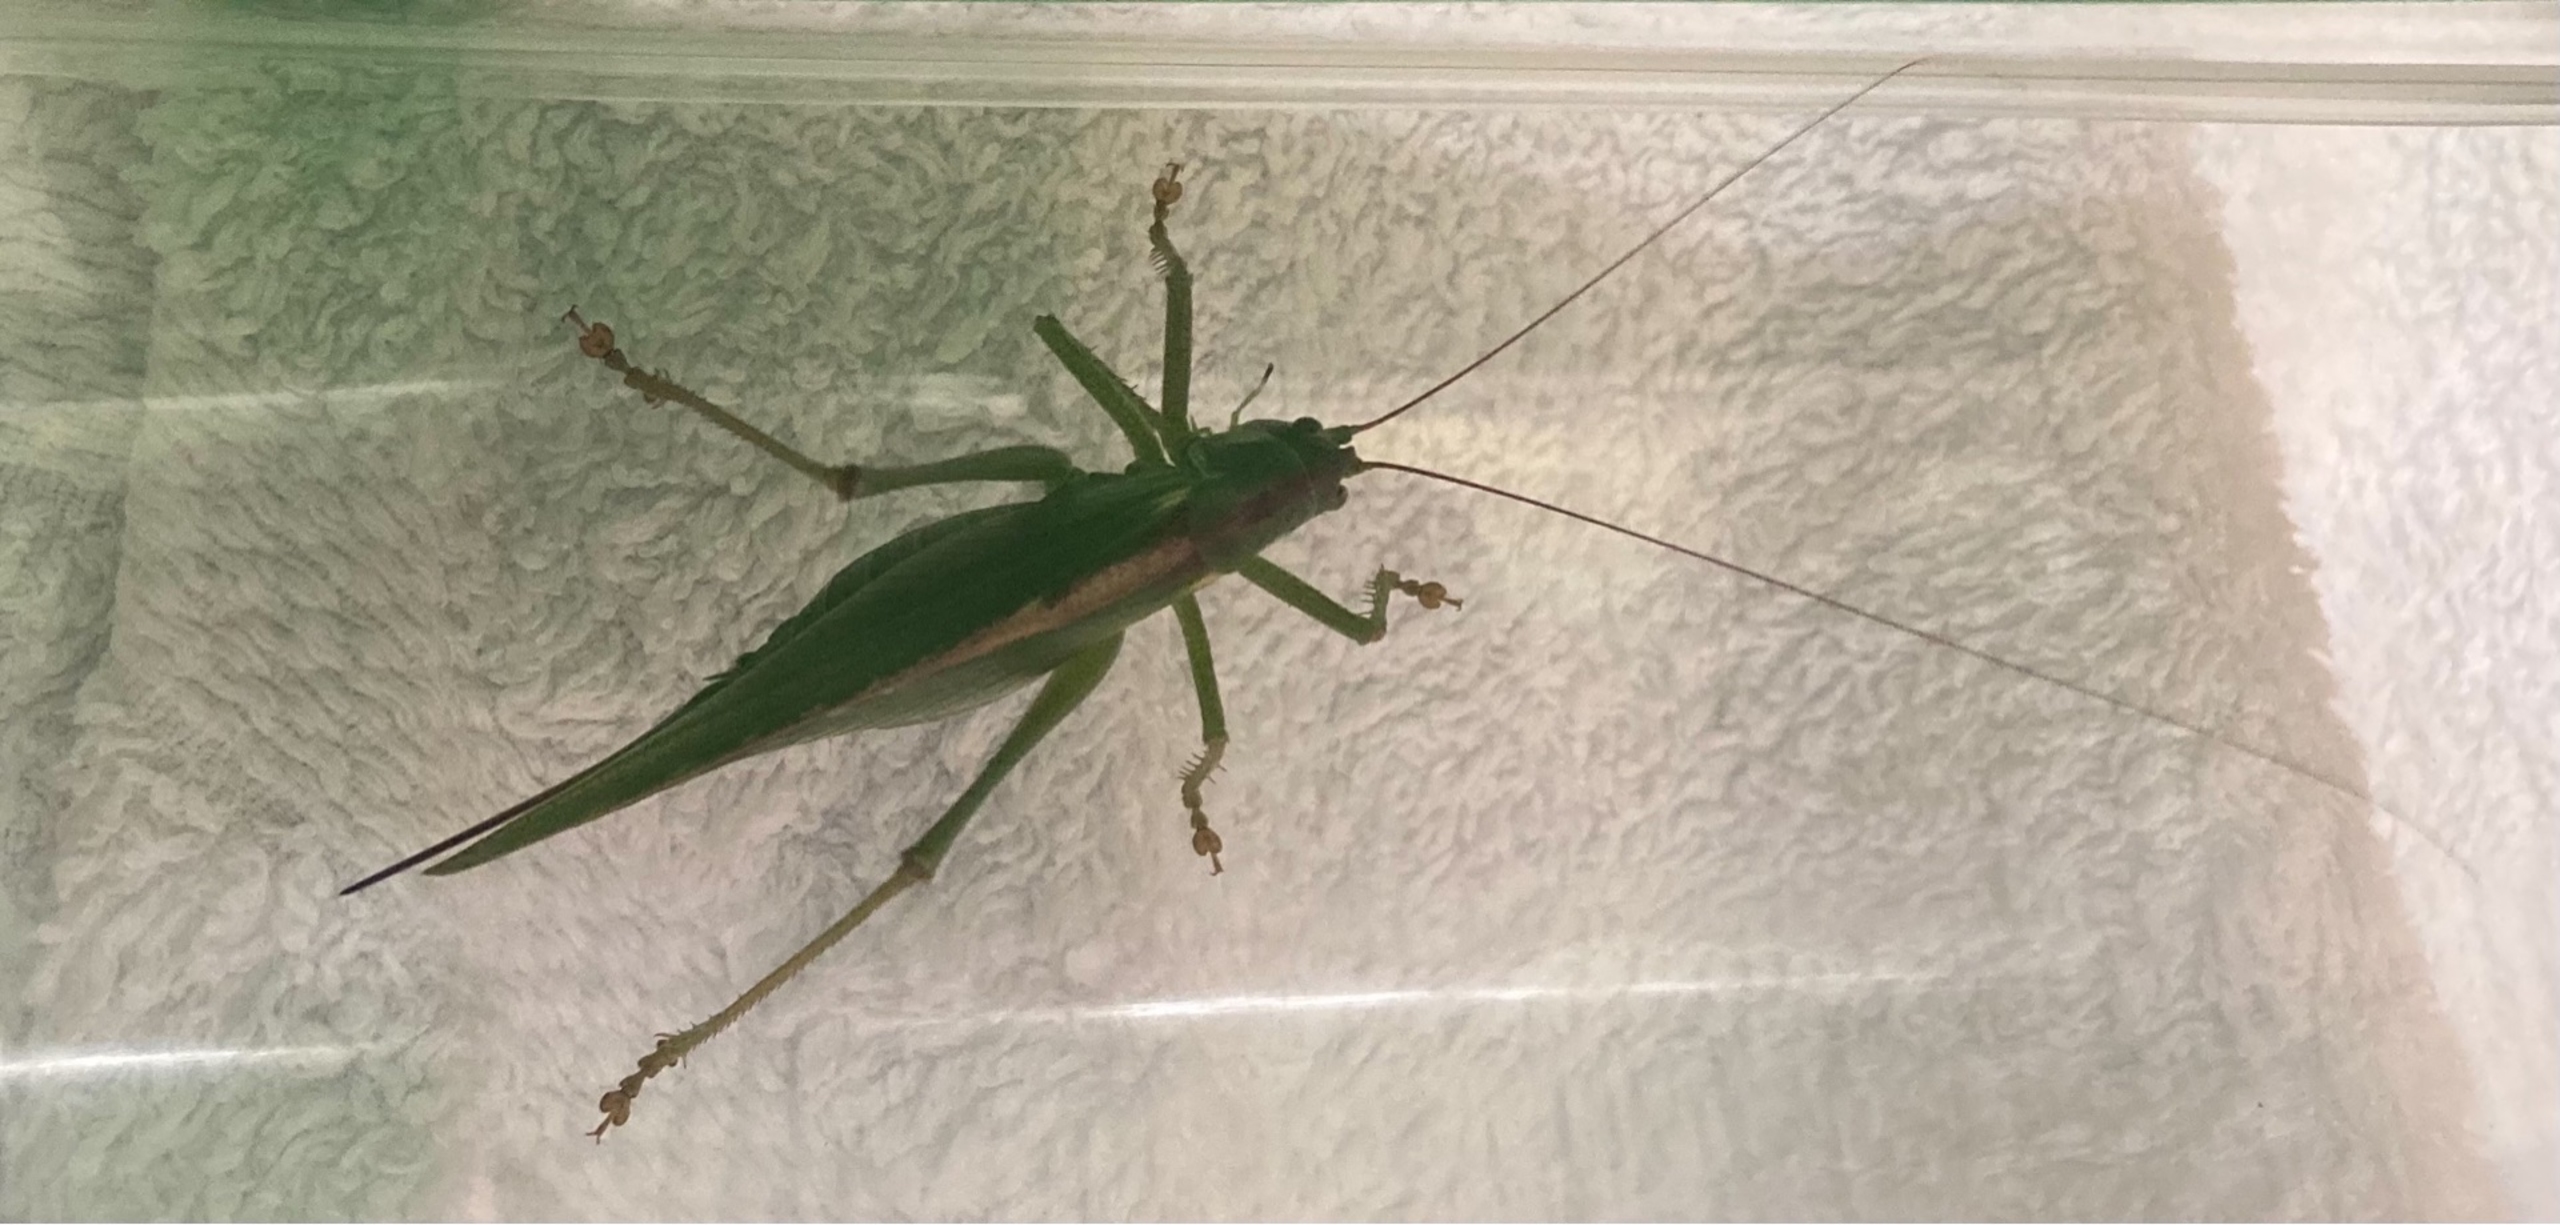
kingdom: Animalia
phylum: Arthropoda
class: Insecta
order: Orthoptera
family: Tettigoniidae
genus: Tettigonia
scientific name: Tettigonia viridissima
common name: Stor grøn løvgræshoppe
